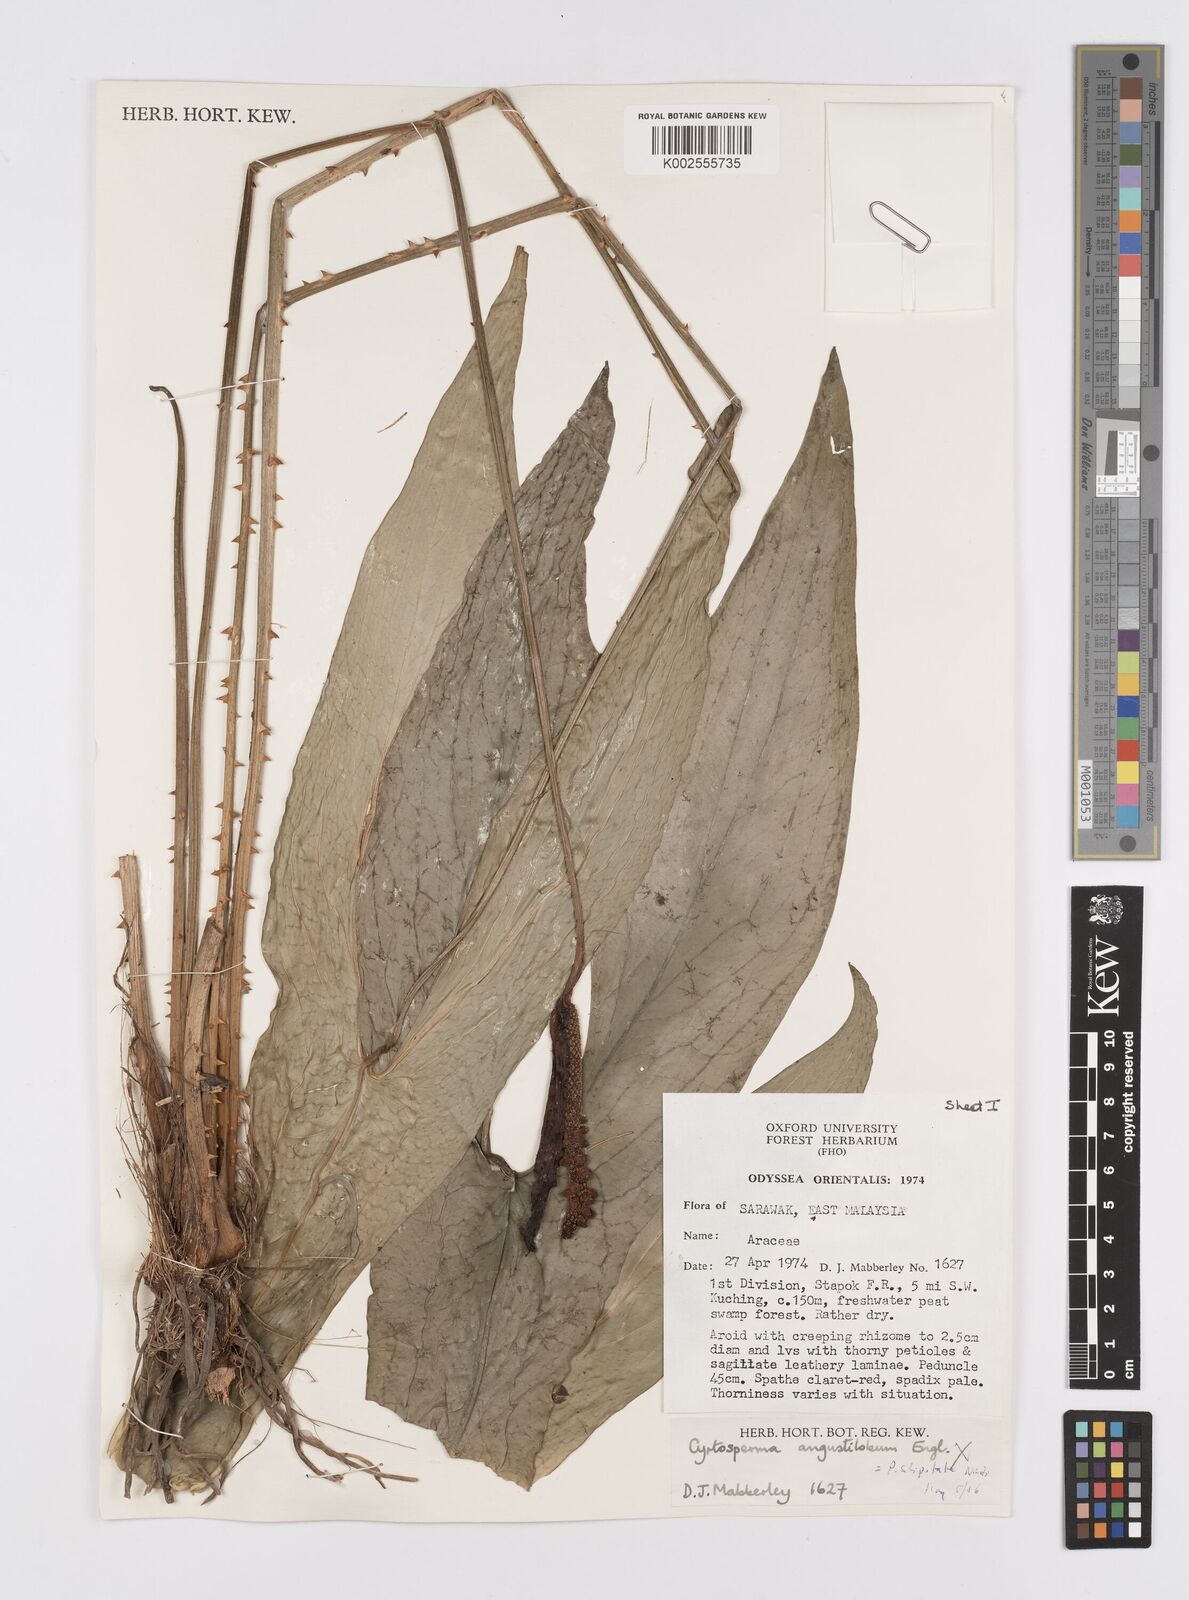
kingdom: Plantae
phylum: Tracheophyta
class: Liliopsida
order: Alismatales
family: Araceae
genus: Podolasia
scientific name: Podolasia stipitata
